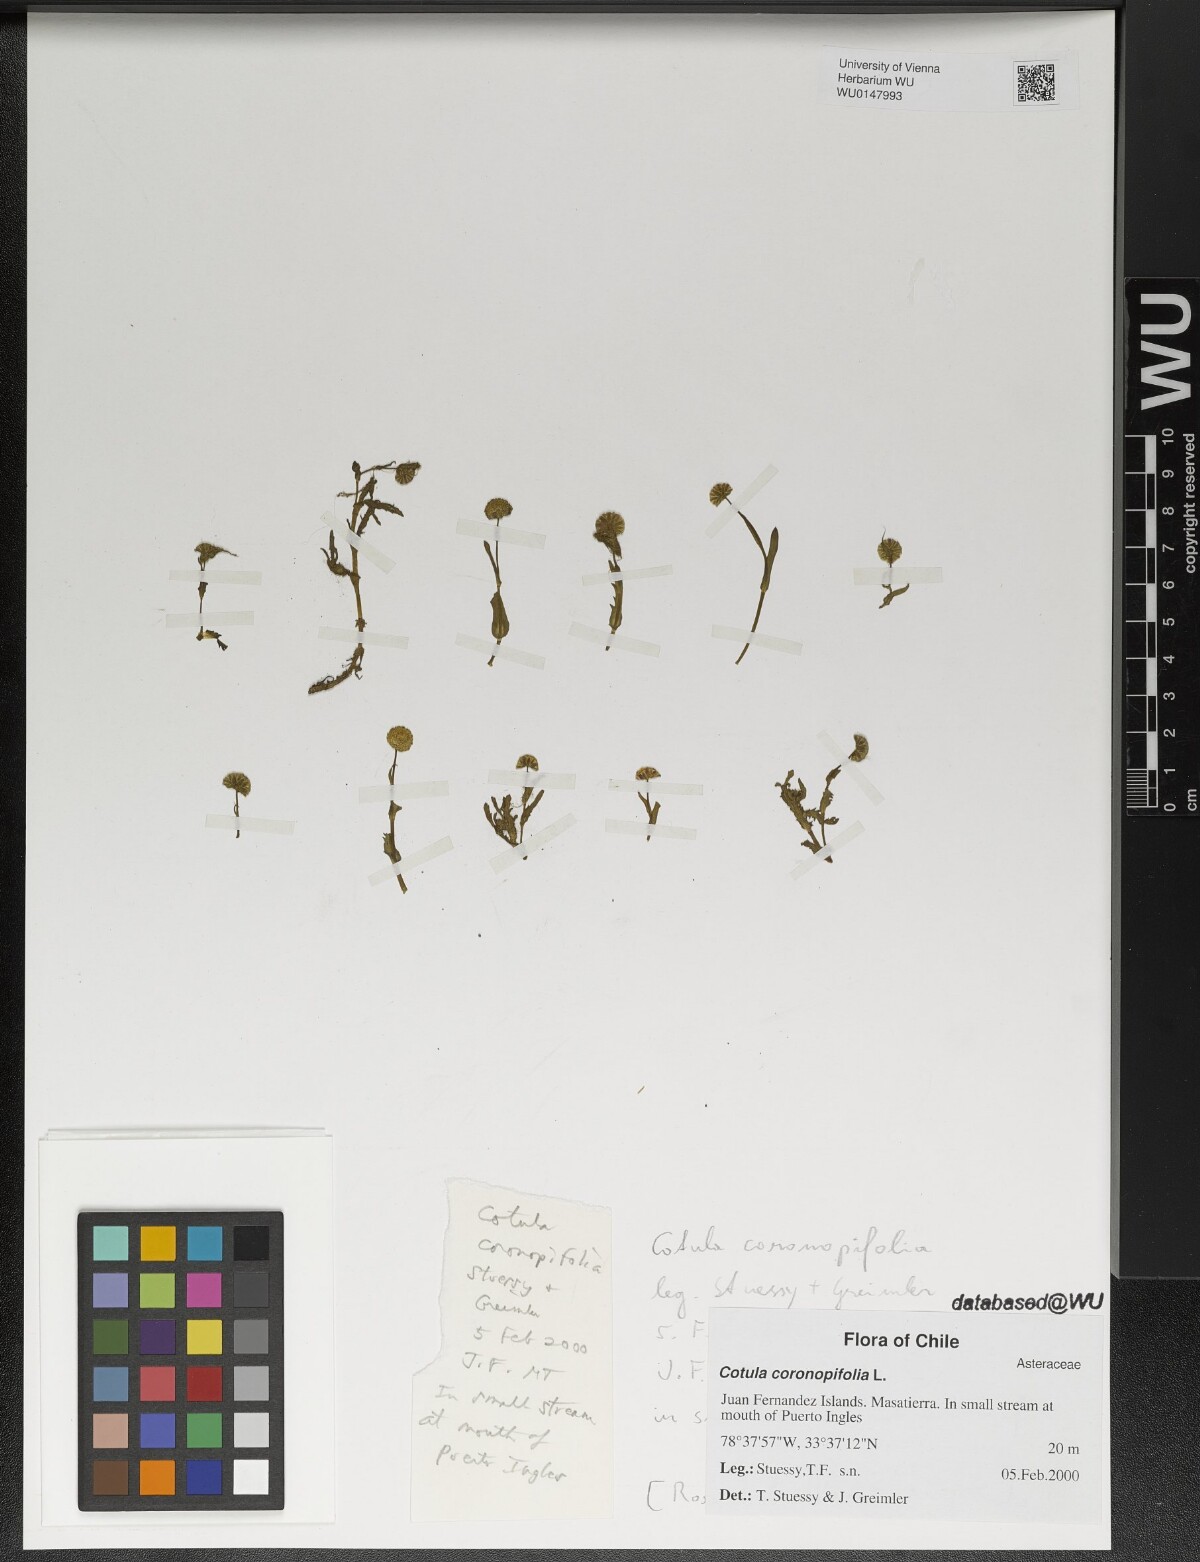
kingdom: Plantae
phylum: Tracheophyta
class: Magnoliopsida
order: Asterales
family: Asteraceae
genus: Cotula
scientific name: Cotula coronopifolia
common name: Buttonweed
